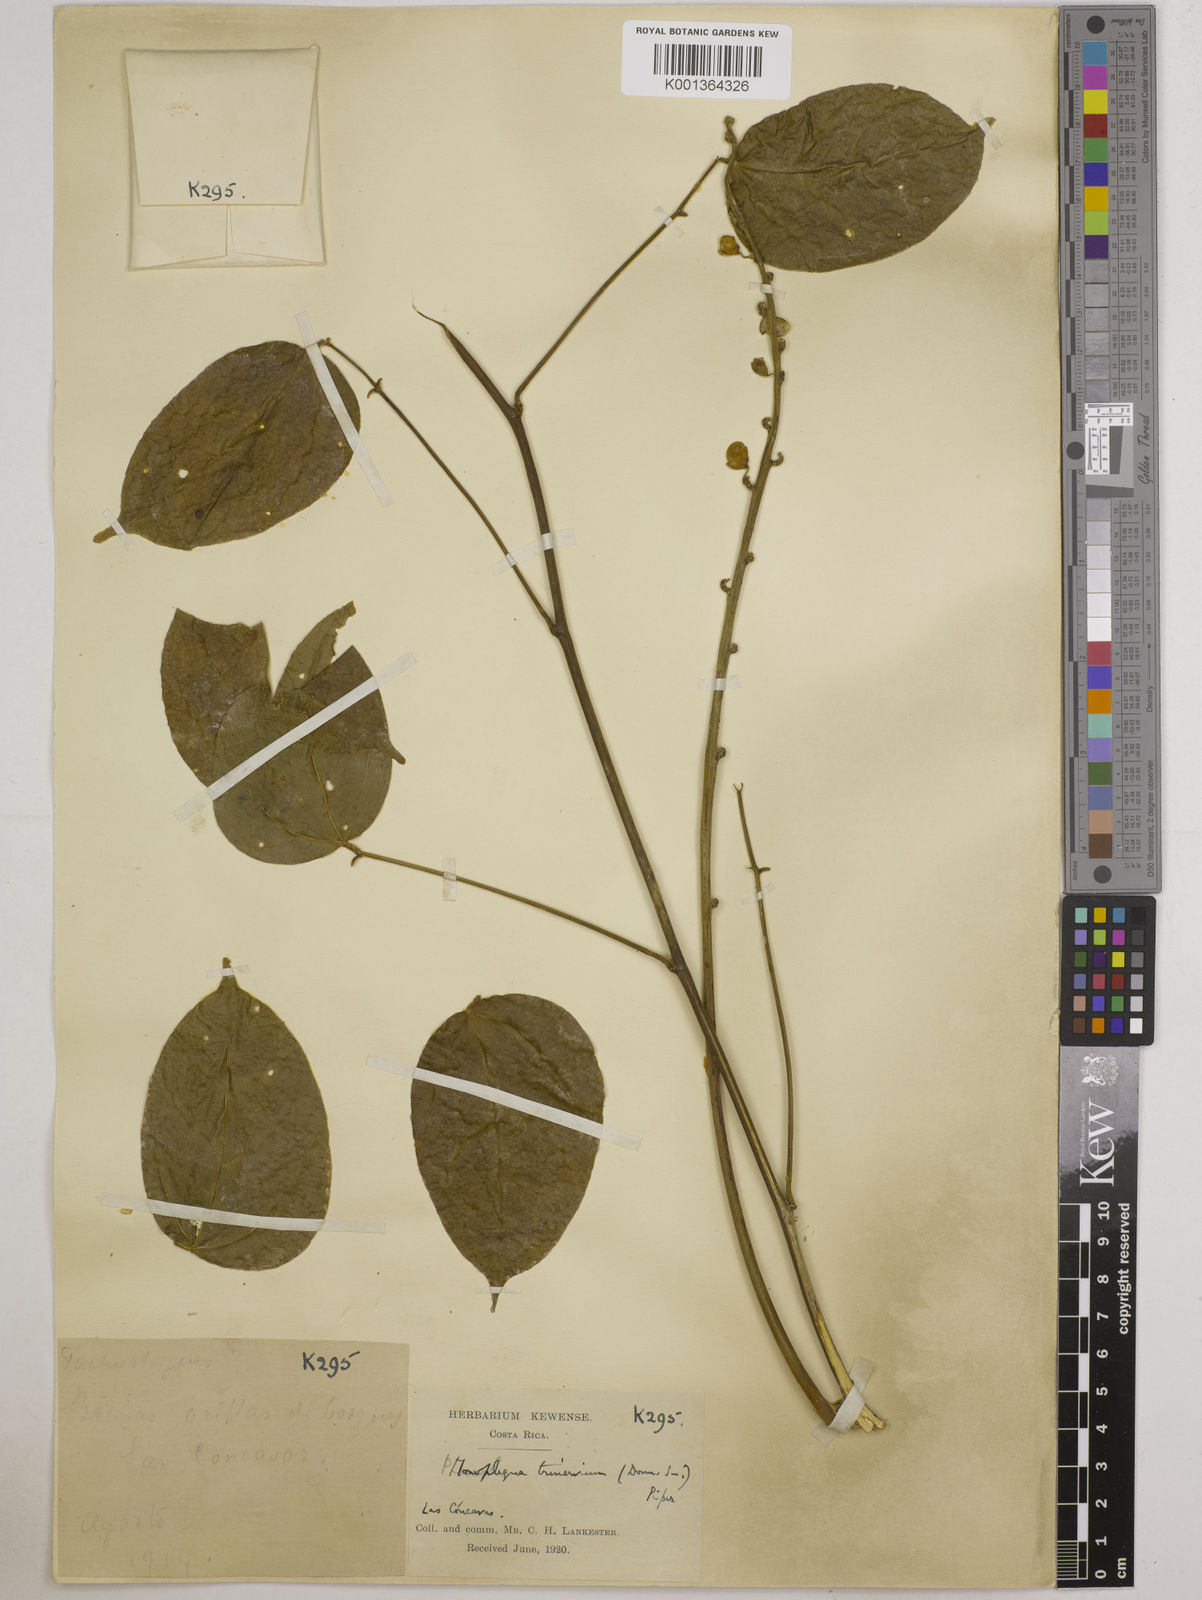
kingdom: Plantae
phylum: Tracheophyta
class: Magnoliopsida
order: Fabales
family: Fabaceae
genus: Oxyrhynchus
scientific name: Oxyrhynchus trinervius
